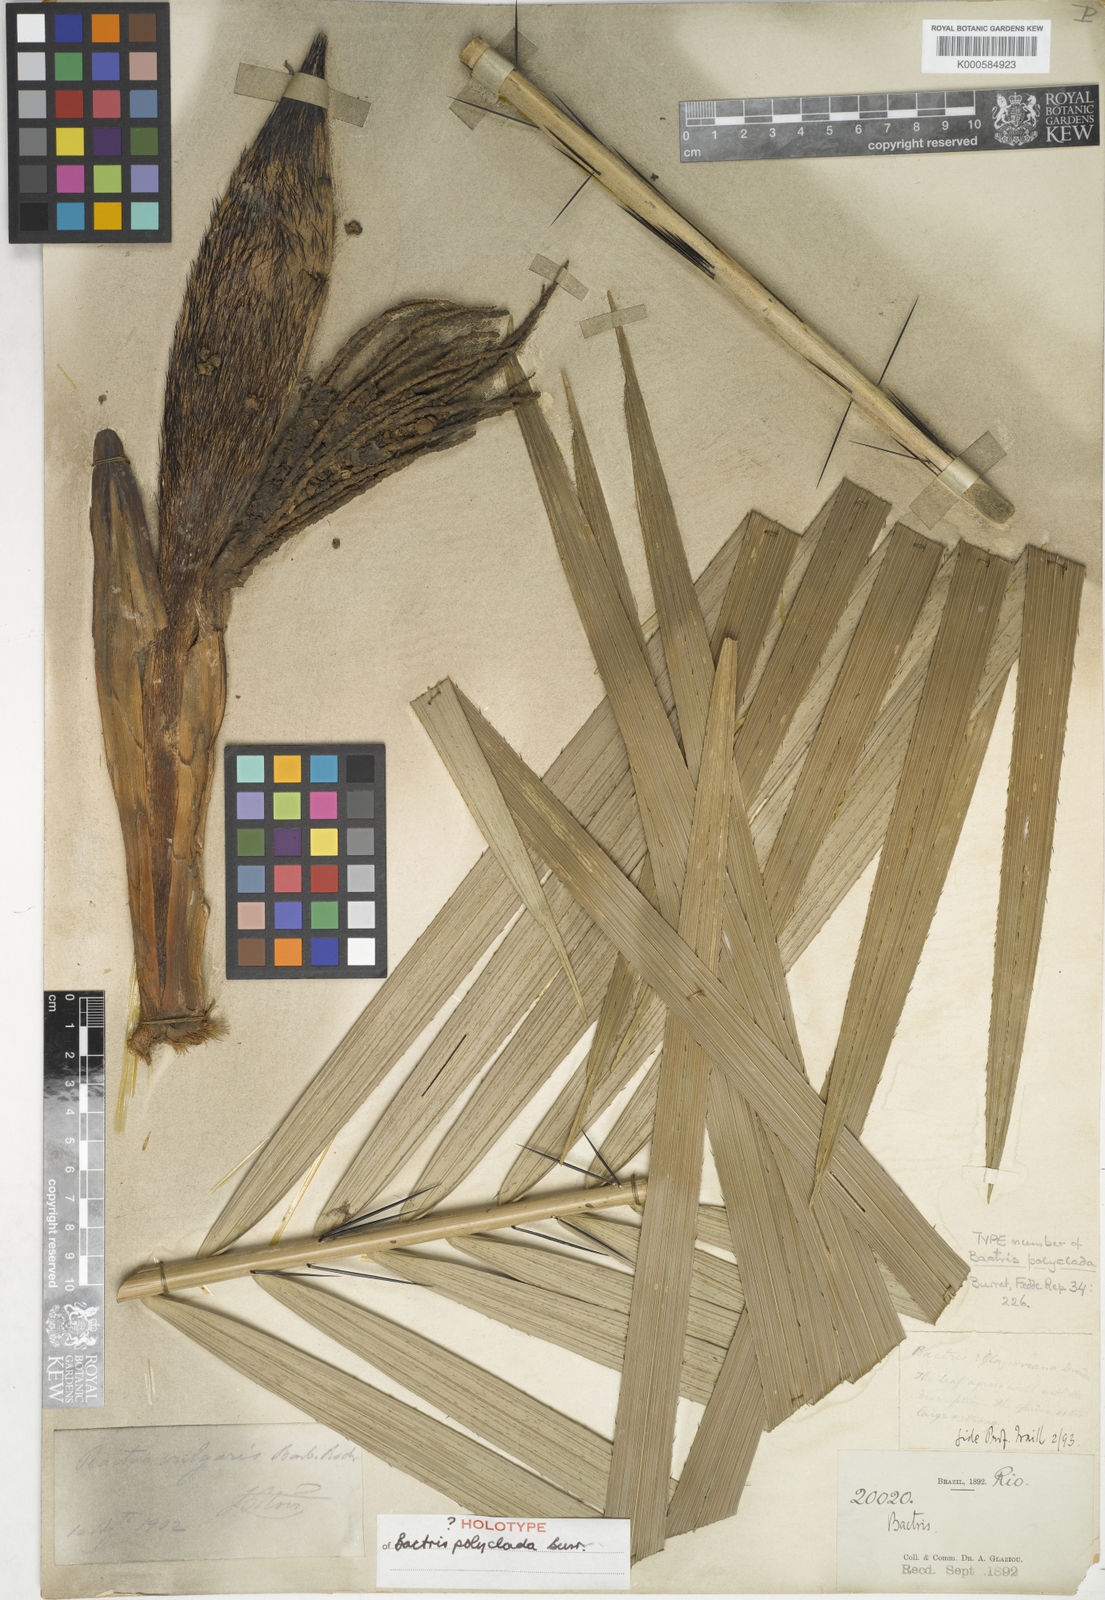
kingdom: Plantae
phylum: Tracheophyta
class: Liliopsida
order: Arecales
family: Arecaceae
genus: Bactris
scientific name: Bactris vulgaris
